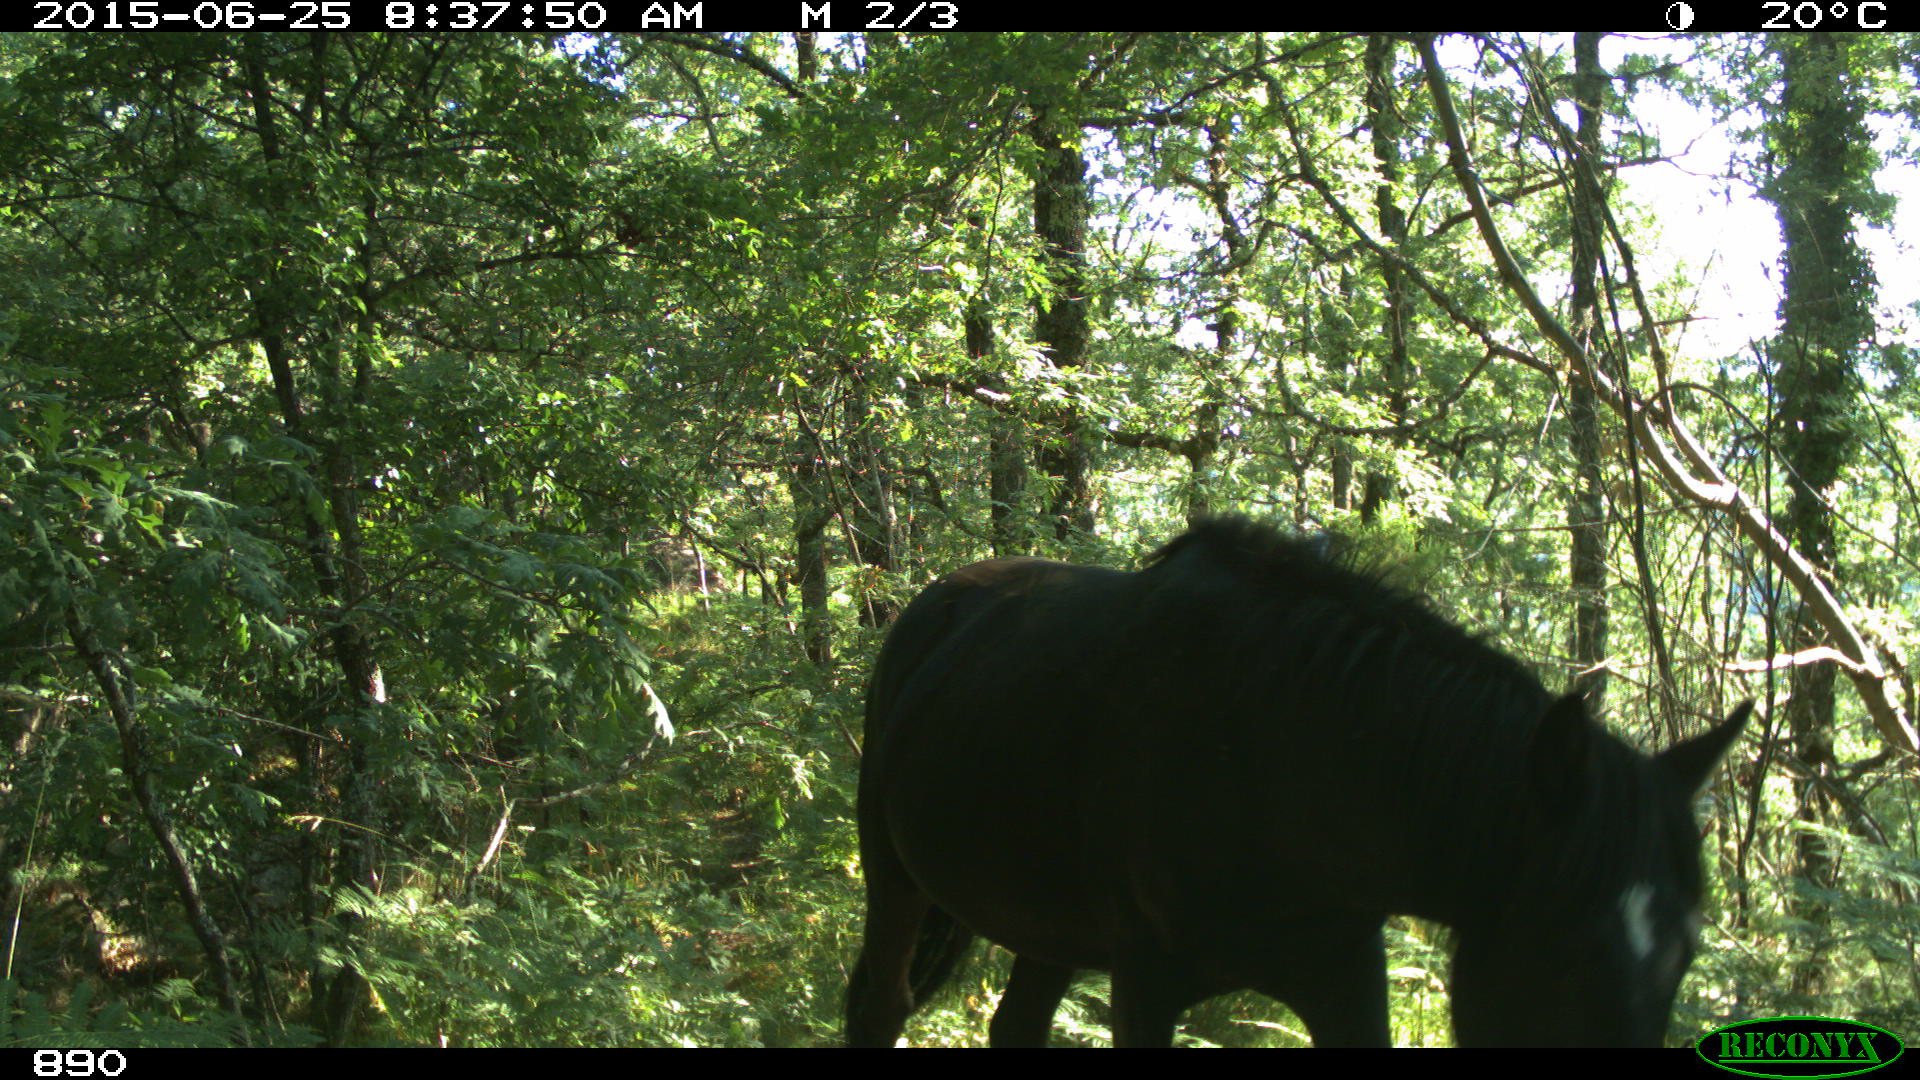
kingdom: Animalia
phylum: Chordata
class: Mammalia
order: Perissodactyla
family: Equidae
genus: Equus
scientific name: Equus caballus
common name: Horse
